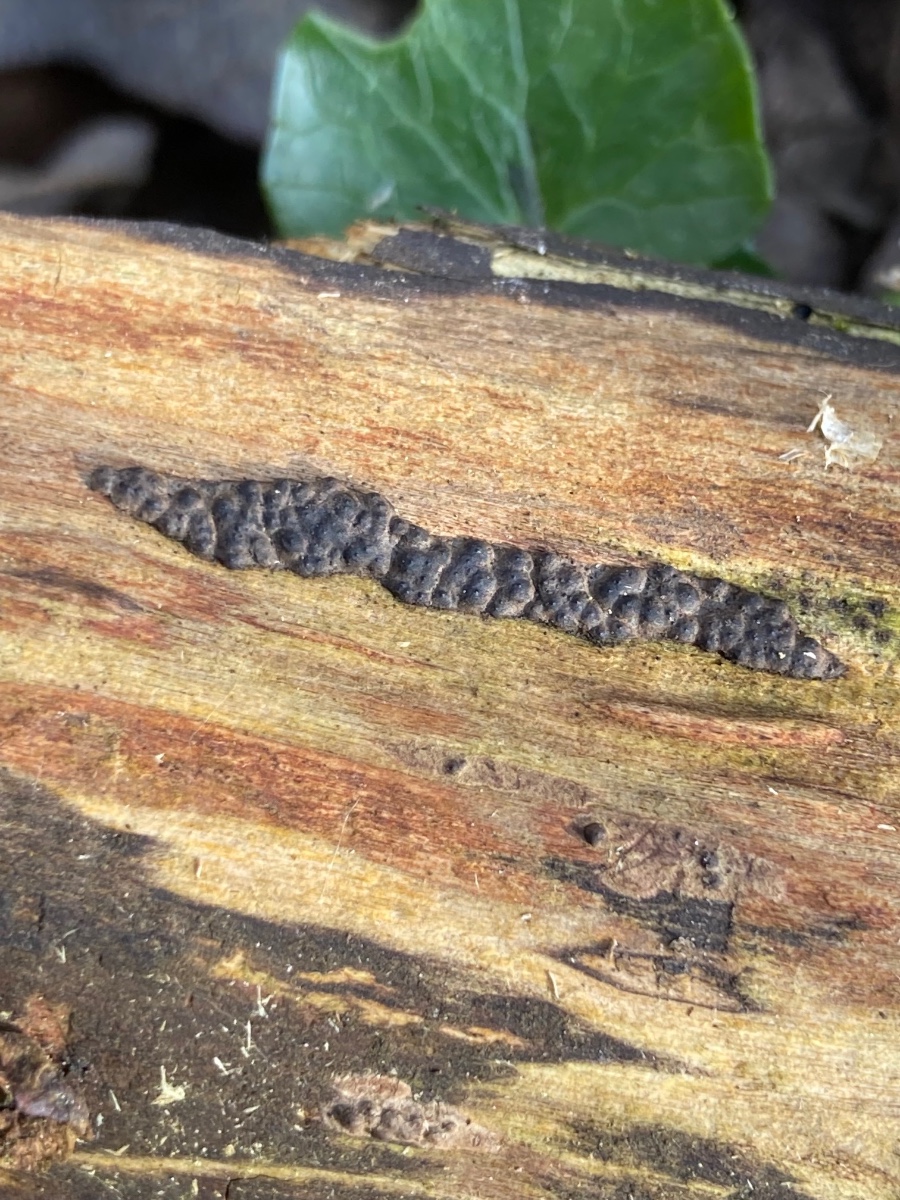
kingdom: Fungi
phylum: Ascomycota
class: Sordariomycetes
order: Xylariales
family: Xylariaceae
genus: Nemania
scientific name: Nemania serpens
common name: almindelig kuldyne
